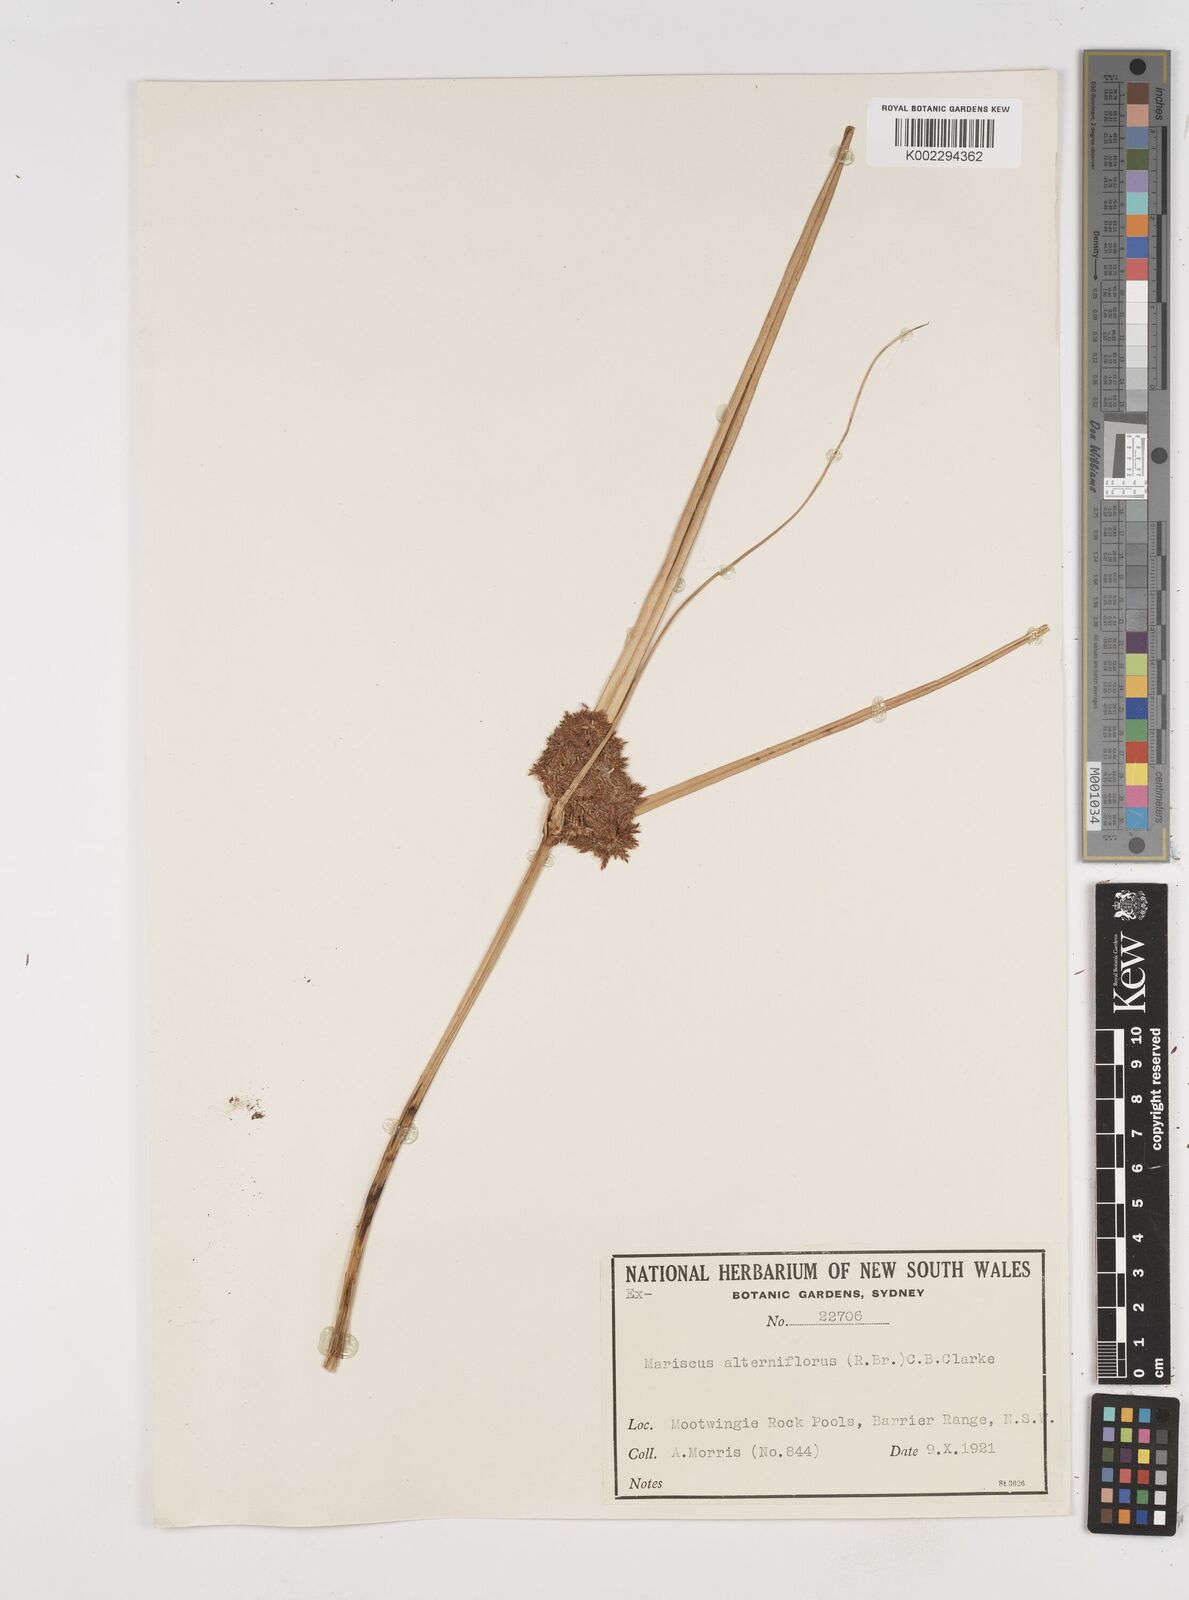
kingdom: Plantae
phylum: Tracheophyta
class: Liliopsida
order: Poales
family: Cyperaceae
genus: Cyperus
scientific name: Cyperus alterniflorus
